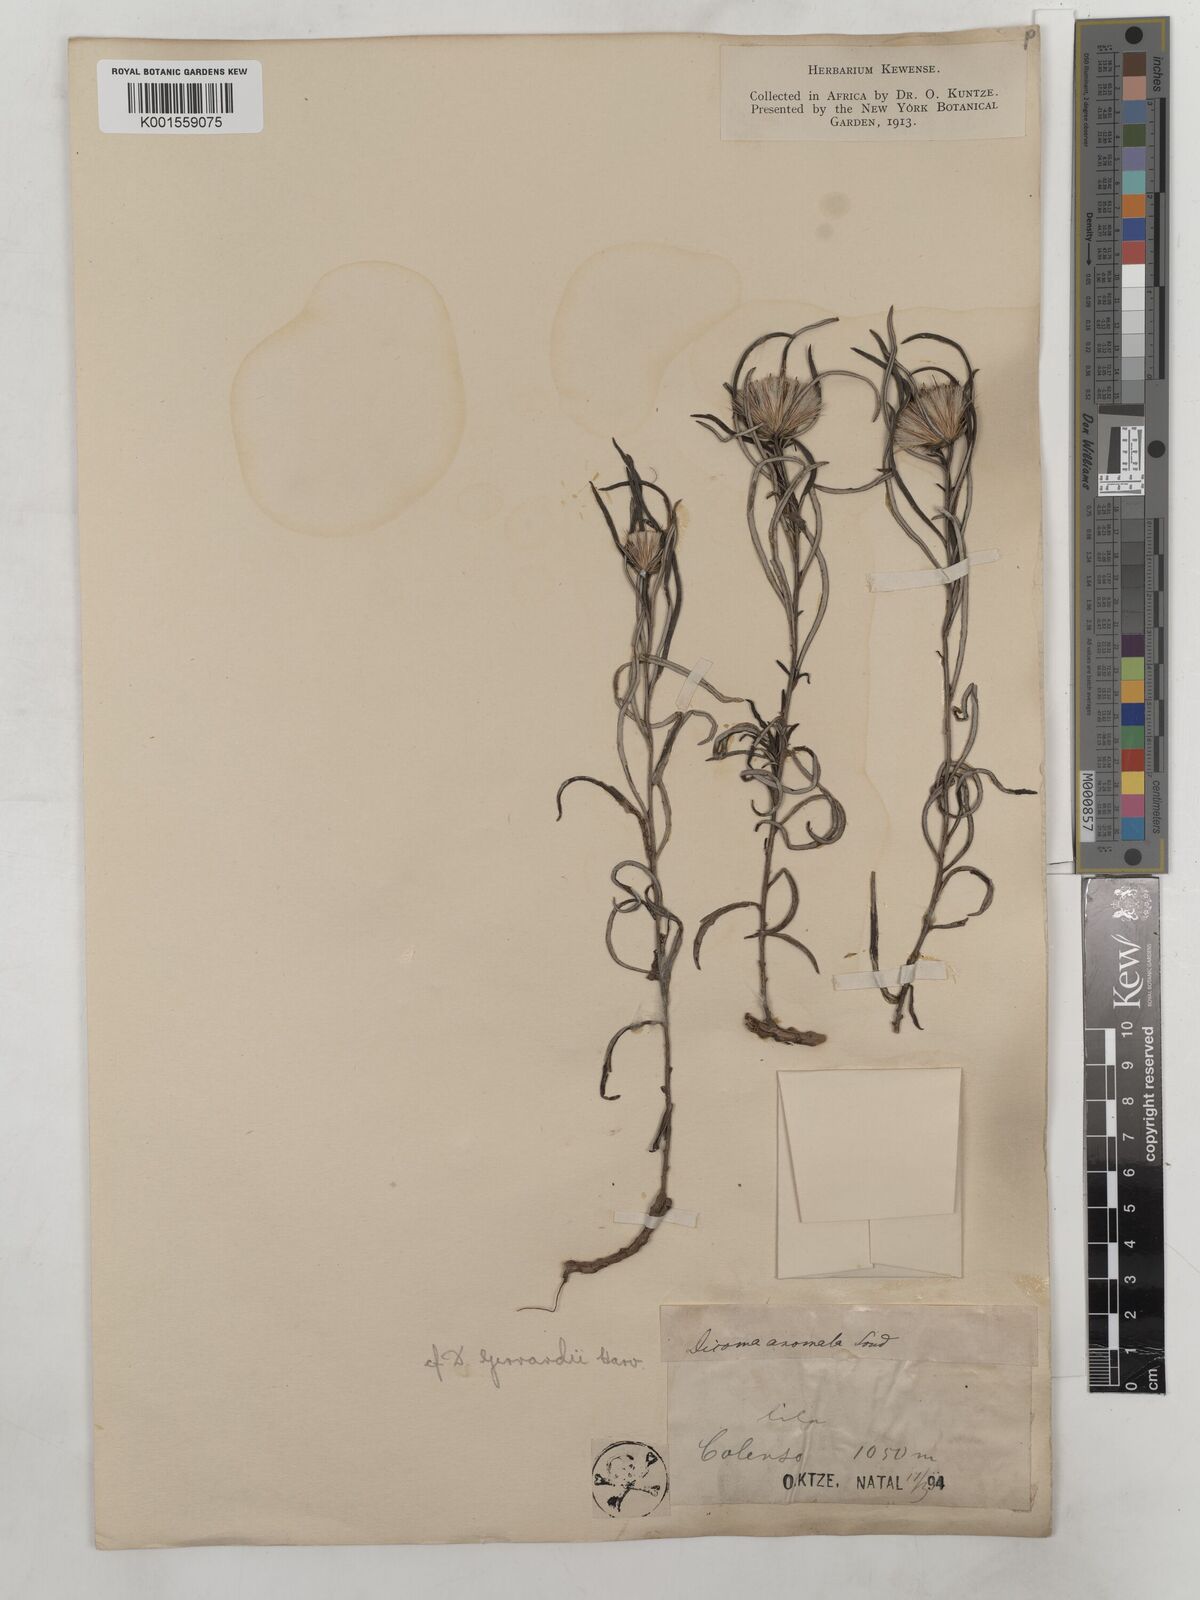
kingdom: Plantae
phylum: Tracheophyta
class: Magnoliopsida
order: Asterales
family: Asteraceae
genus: Dicoma
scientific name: Dicoma anomala
